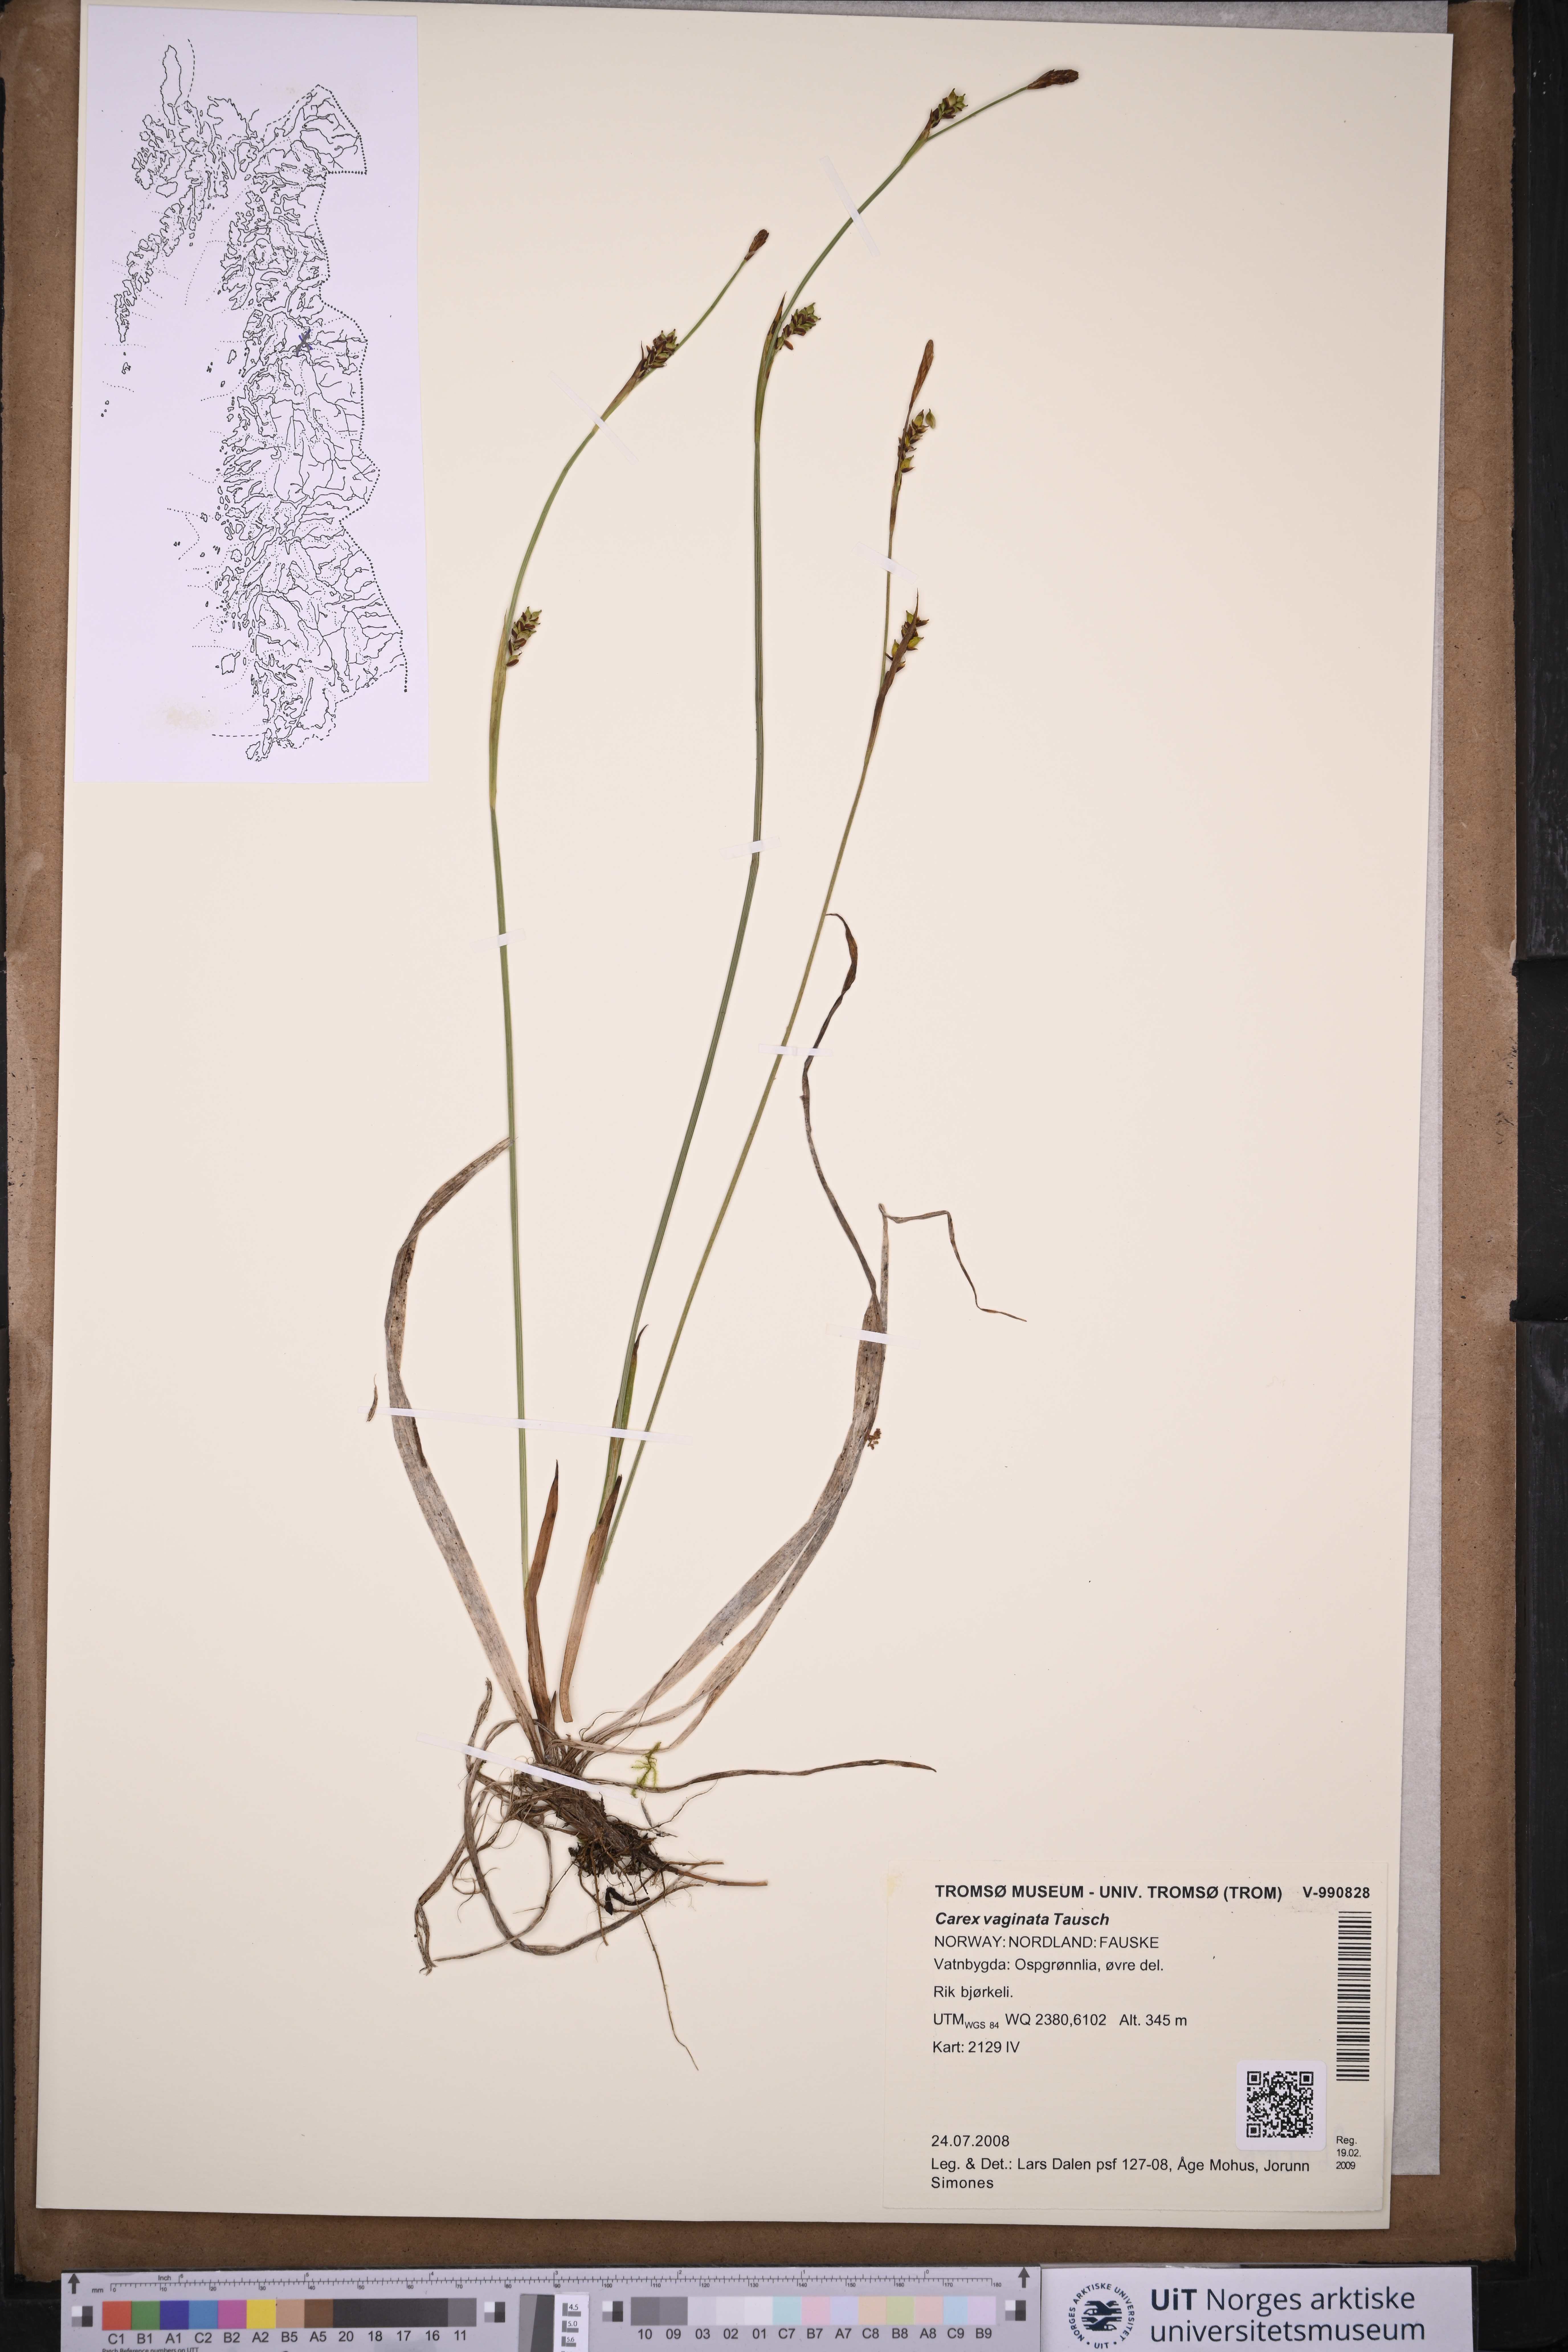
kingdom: Plantae
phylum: Tracheophyta
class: Liliopsida
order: Poales
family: Cyperaceae
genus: Carex
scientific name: Carex vaginata
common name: Sheathed sedge
